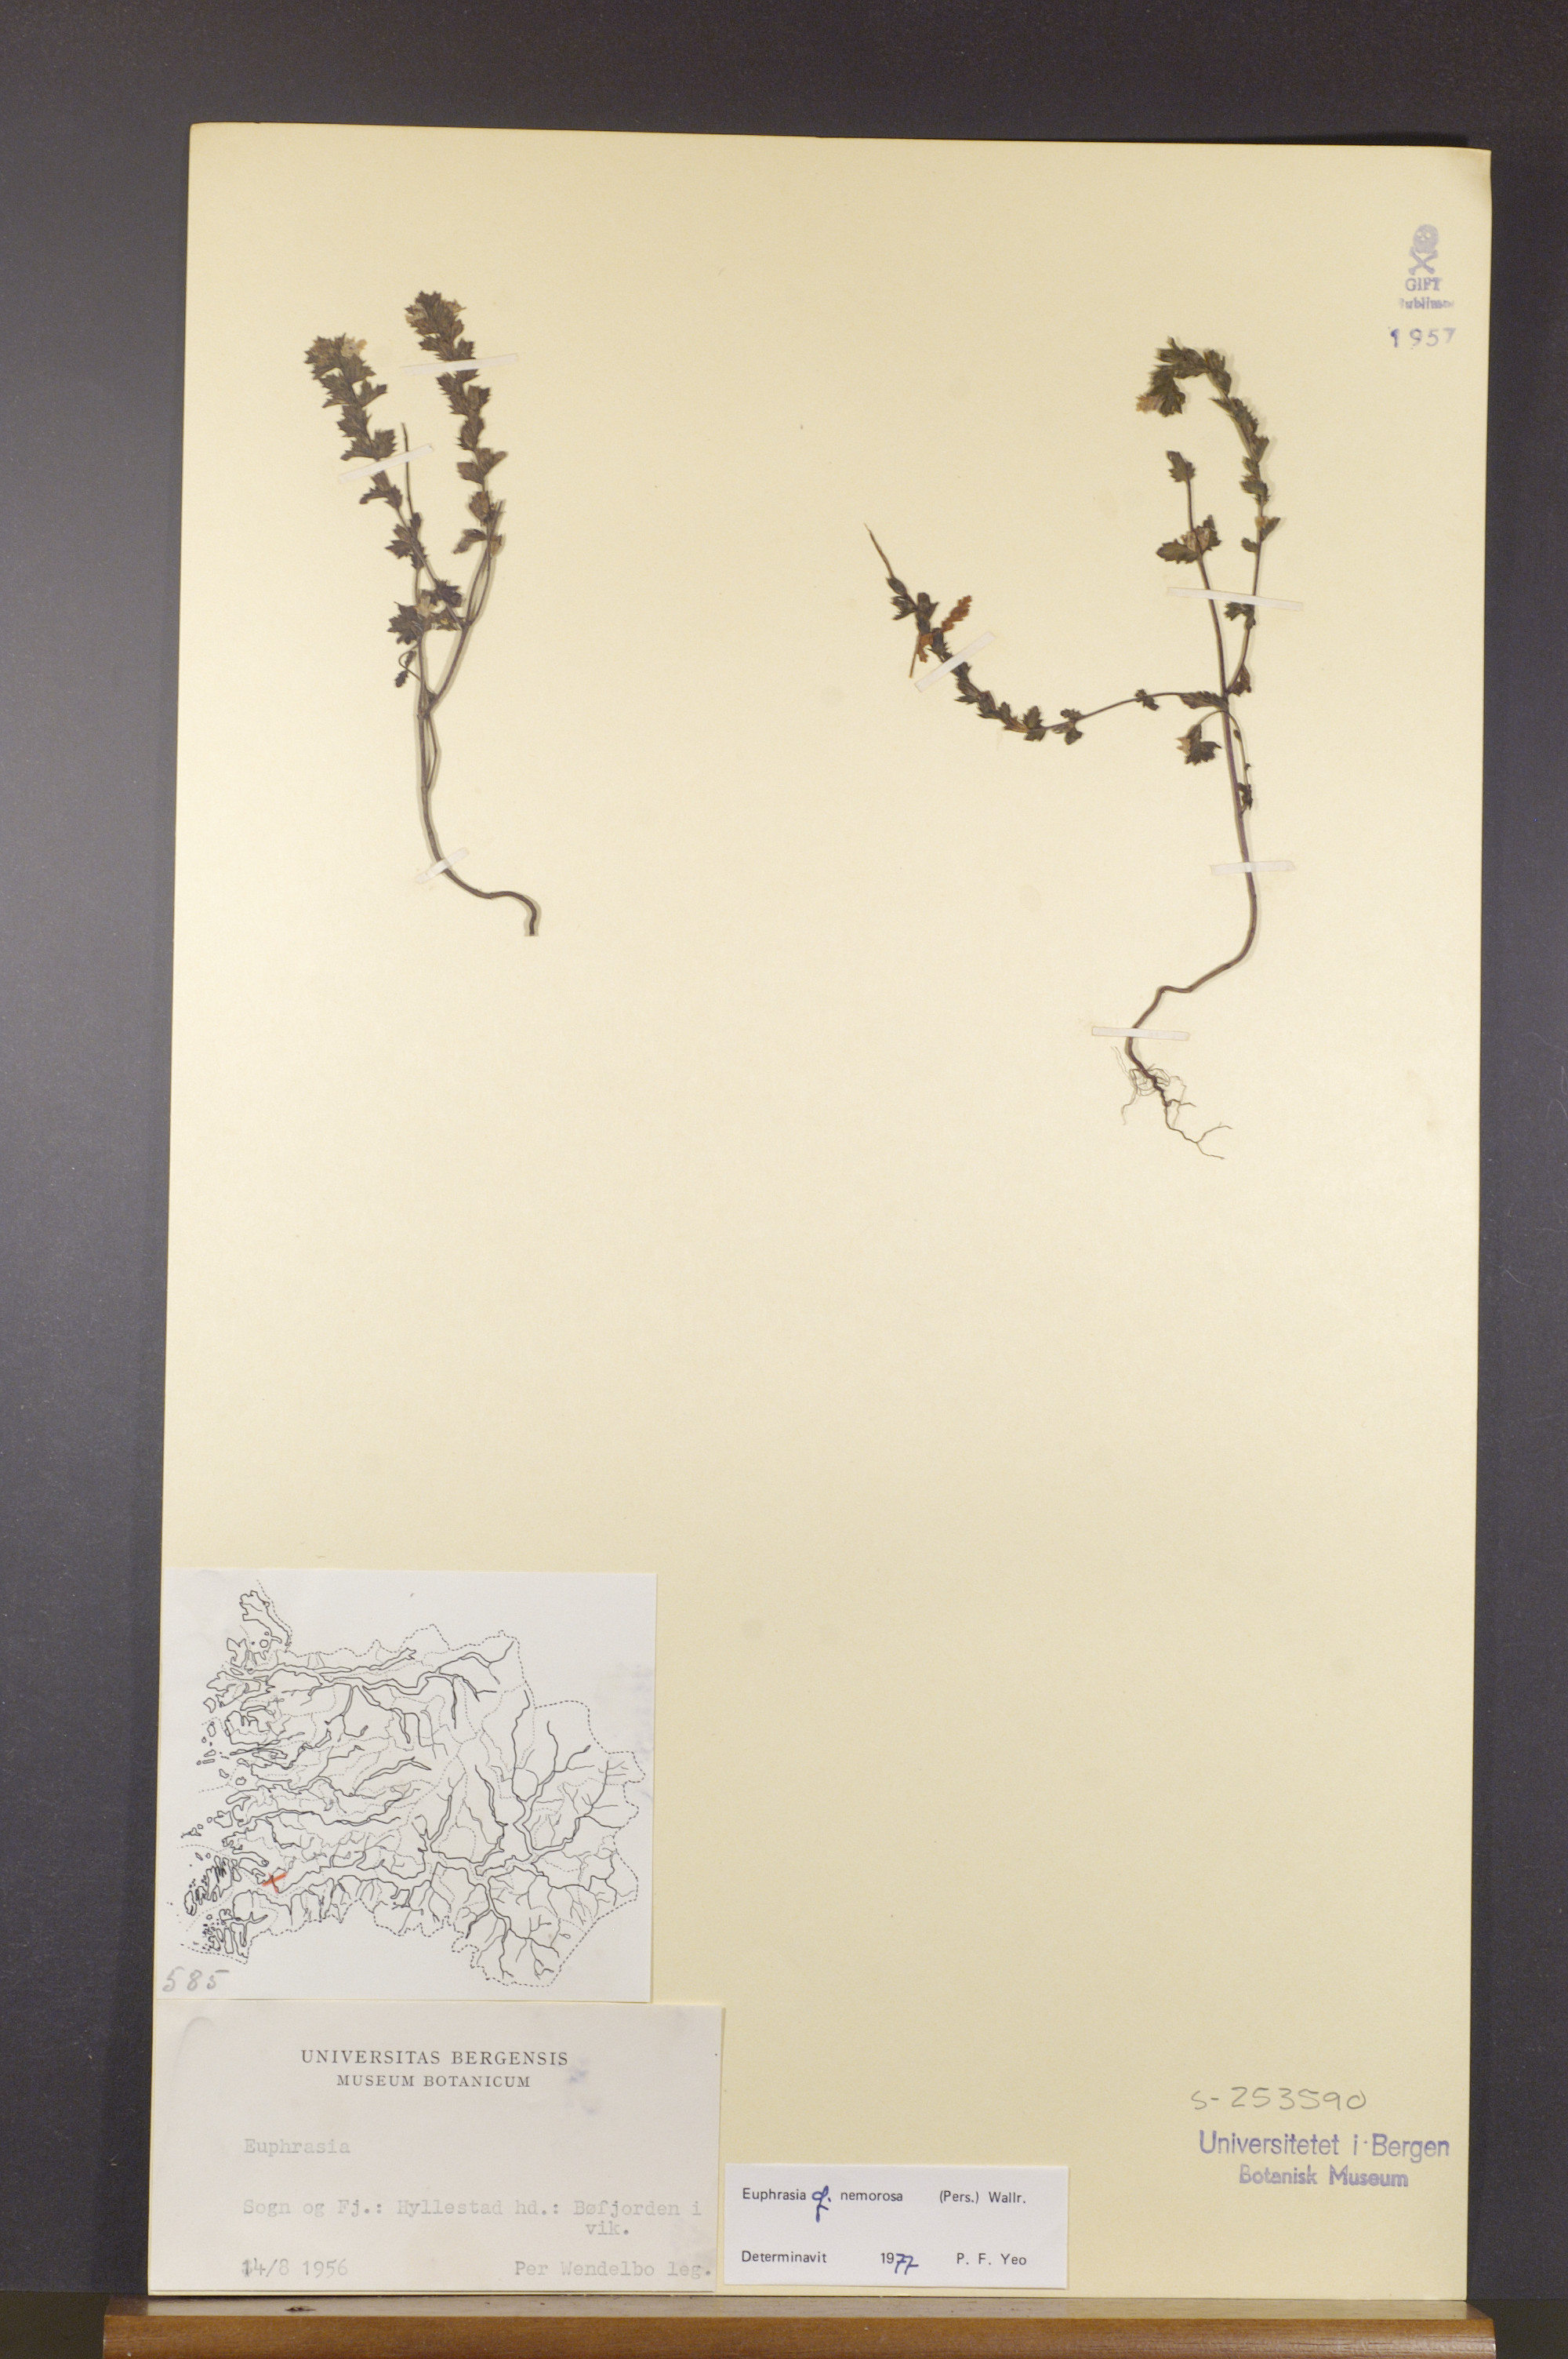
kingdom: Plantae
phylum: Tracheophyta
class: Magnoliopsida
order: Lamiales
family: Orobanchaceae
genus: Euphrasia
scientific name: Euphrasia nemorosa
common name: Common eyebright
